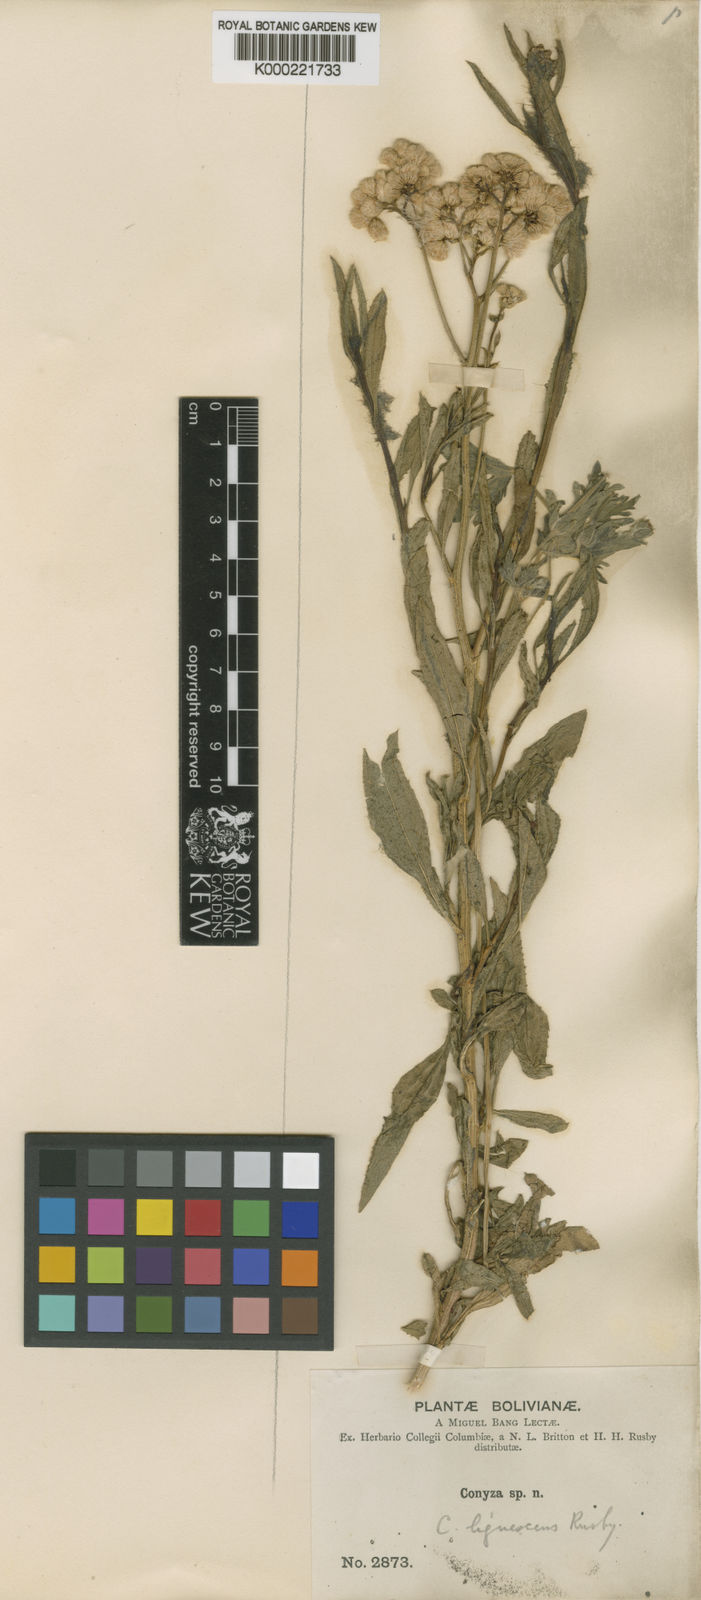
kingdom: Plantae
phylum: Tracheophyta
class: Magnoliopsida
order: Asterales
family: Asteraceae
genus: Erigeron
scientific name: Erigeron lignescens
